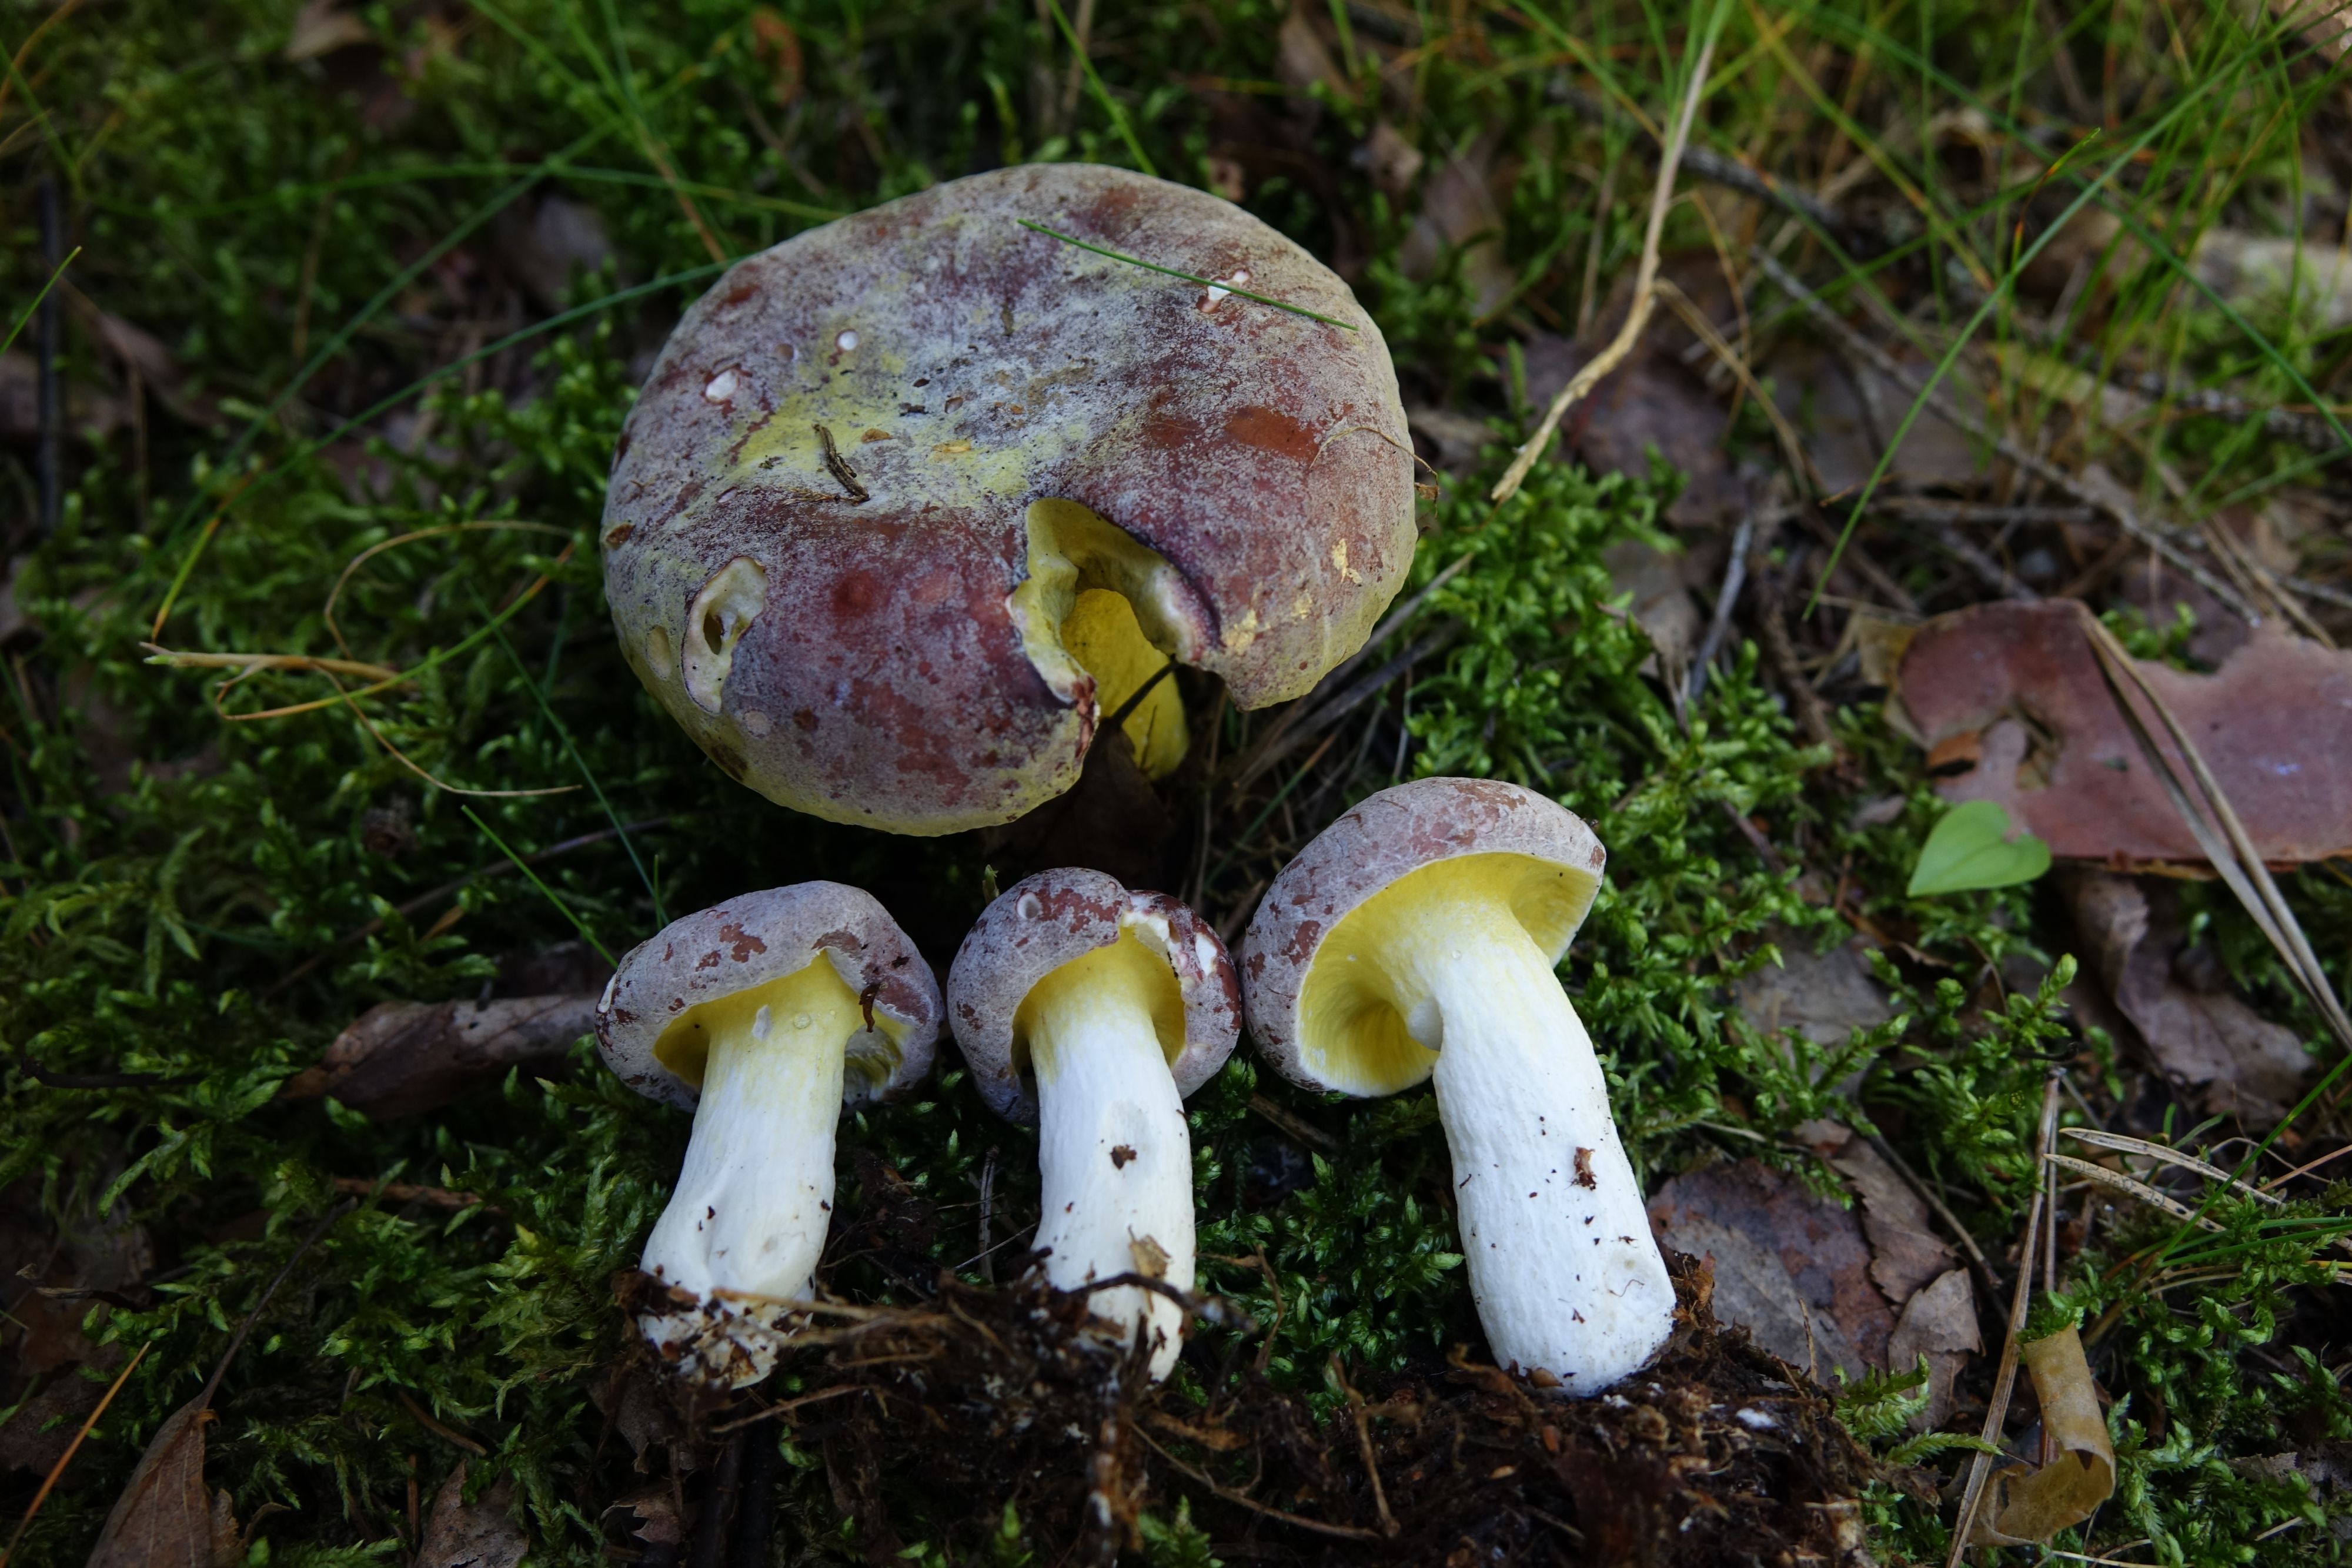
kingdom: Fungi
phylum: Ascomycota
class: Sordariomycetes
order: Hypocreales
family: Hypocreaceae
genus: Hypomyces
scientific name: Hypomyces luteovirens
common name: Yellow-green russula mold
